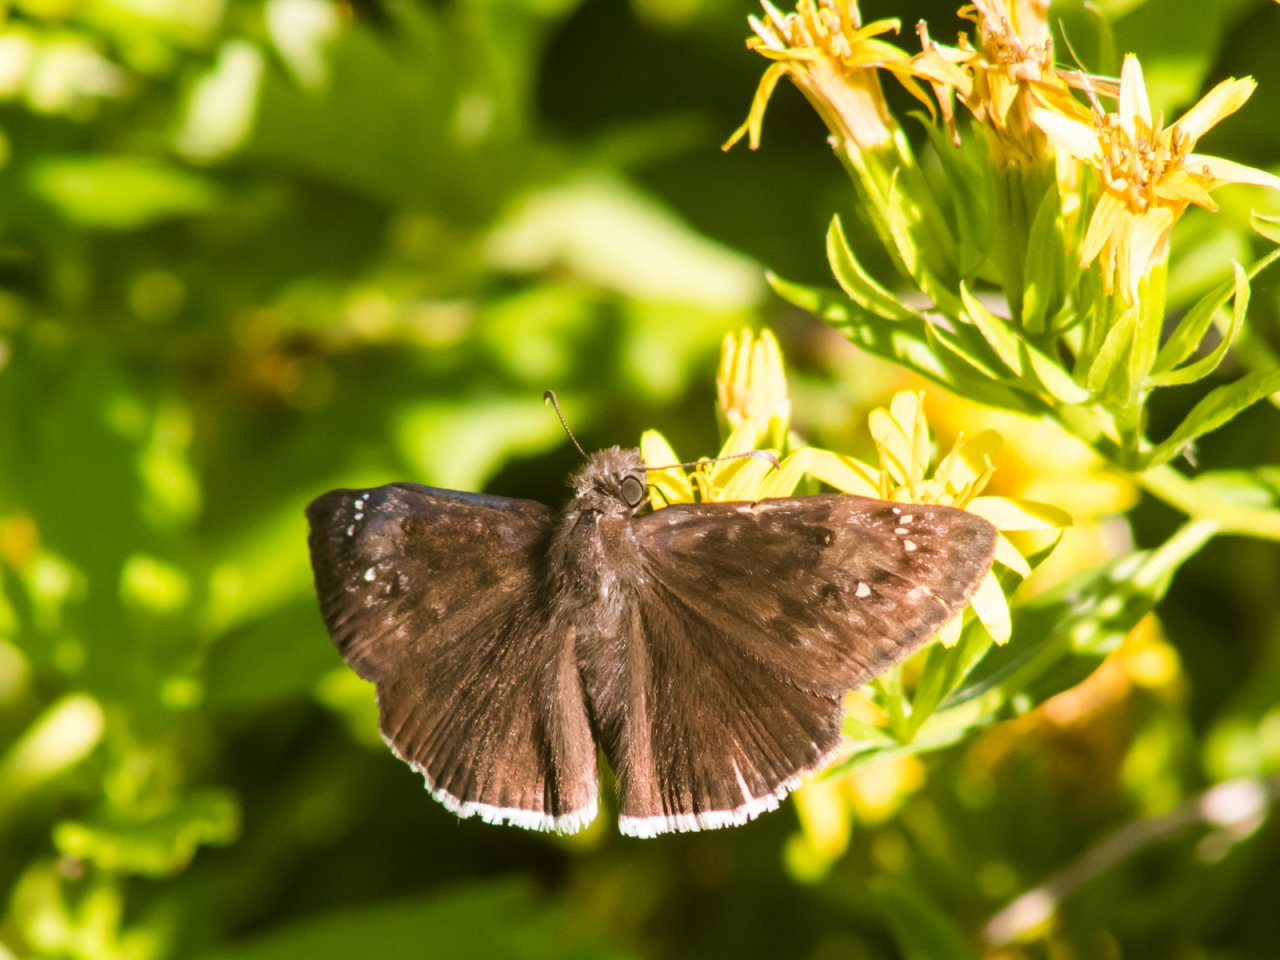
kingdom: Animalia
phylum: Arthropoda
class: Insecta
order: Lepidoptera
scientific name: Lepidoptera
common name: Butterflies
